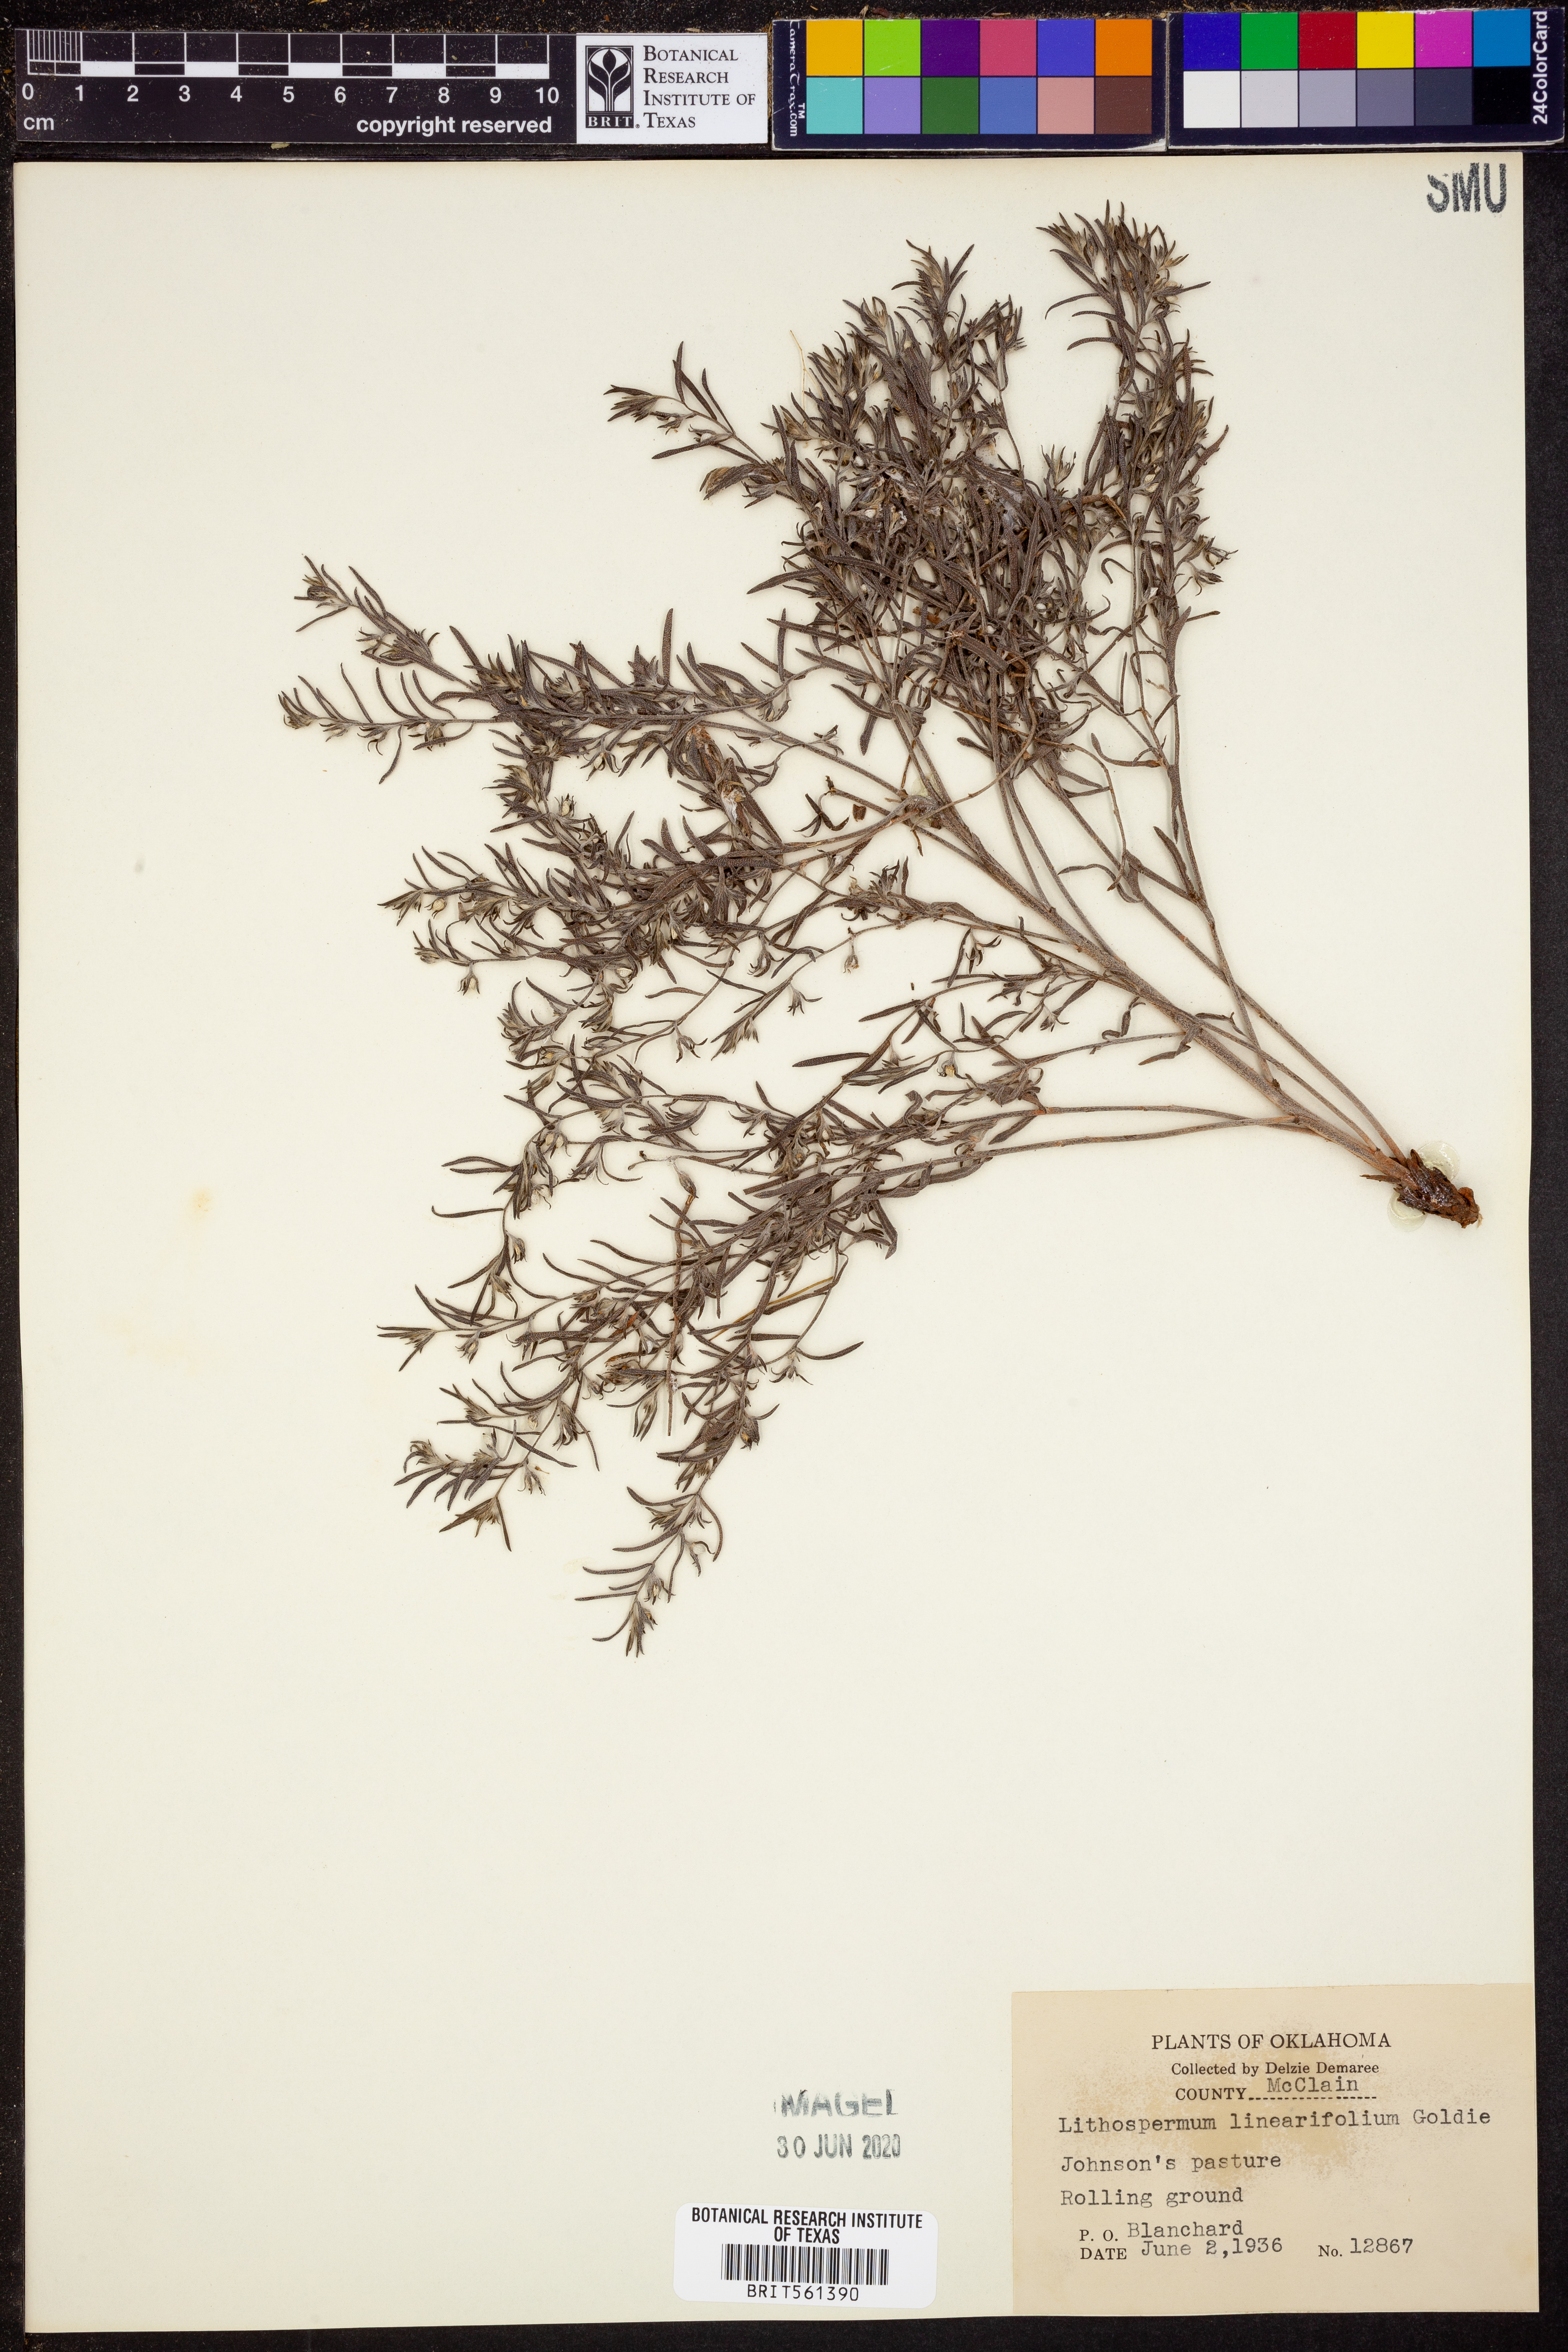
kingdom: Plantae
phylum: Tracheophyta
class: Magnoliopsida
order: Boraginales
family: Boraginaceae
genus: Lithospermum
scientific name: Lithospermum incisum
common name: Fringed gromwell
